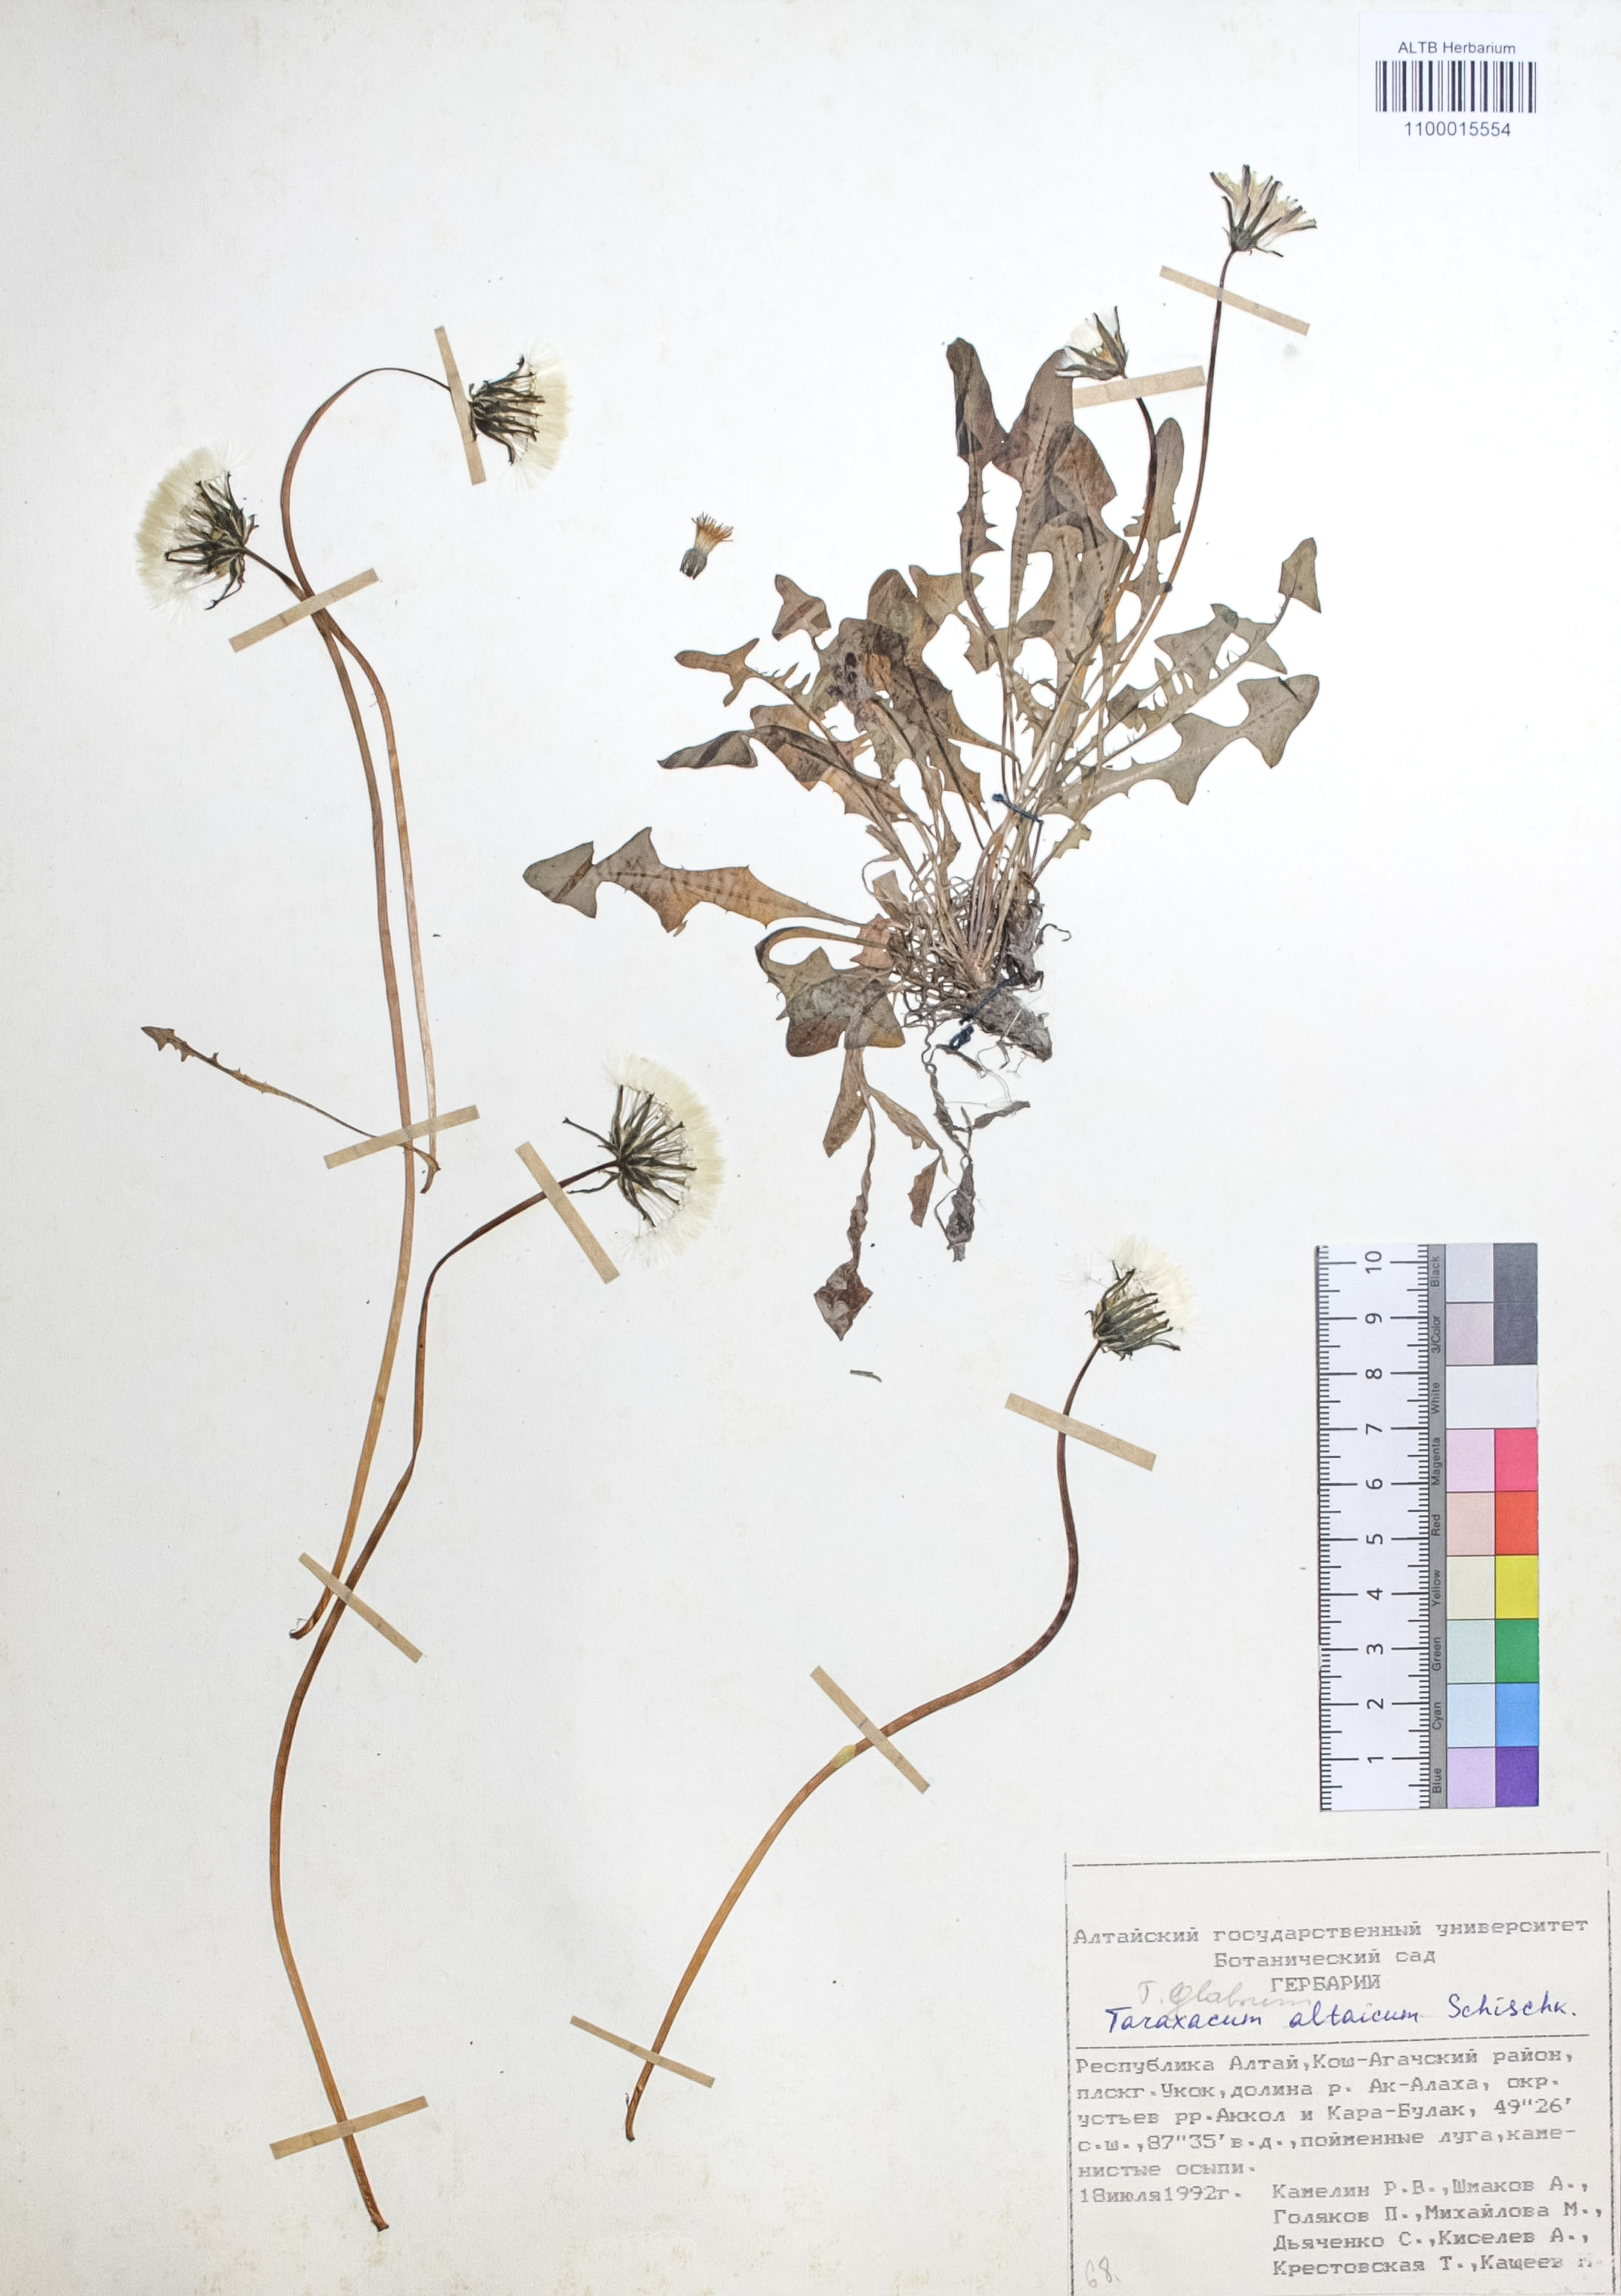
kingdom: Plantae
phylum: Tracheophyta
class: Magnoliopsida
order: Asterales
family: Asteraceae
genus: Taraxacum
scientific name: Taraxacum ceratophorum
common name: Horn-bearing dandelion
